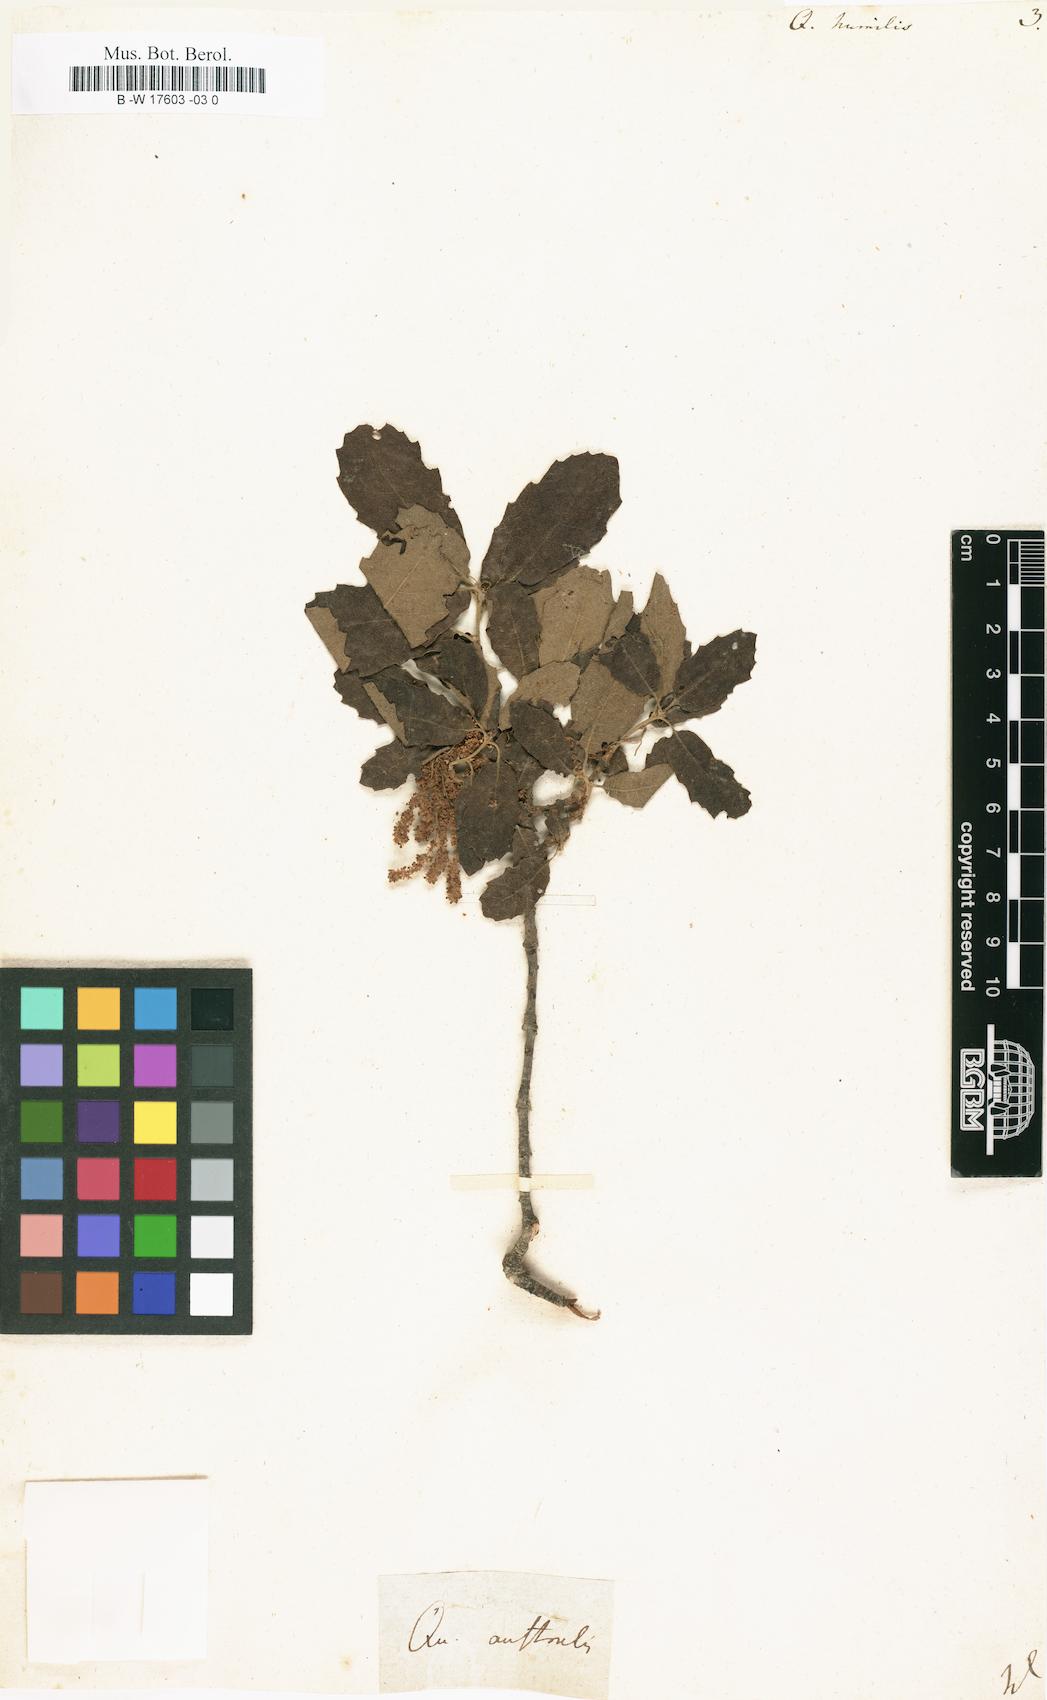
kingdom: Plantae
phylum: Tracheophyta
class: Magnoliopsida
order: Fagales
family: Fagaceae
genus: Quercus
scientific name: Quercus
